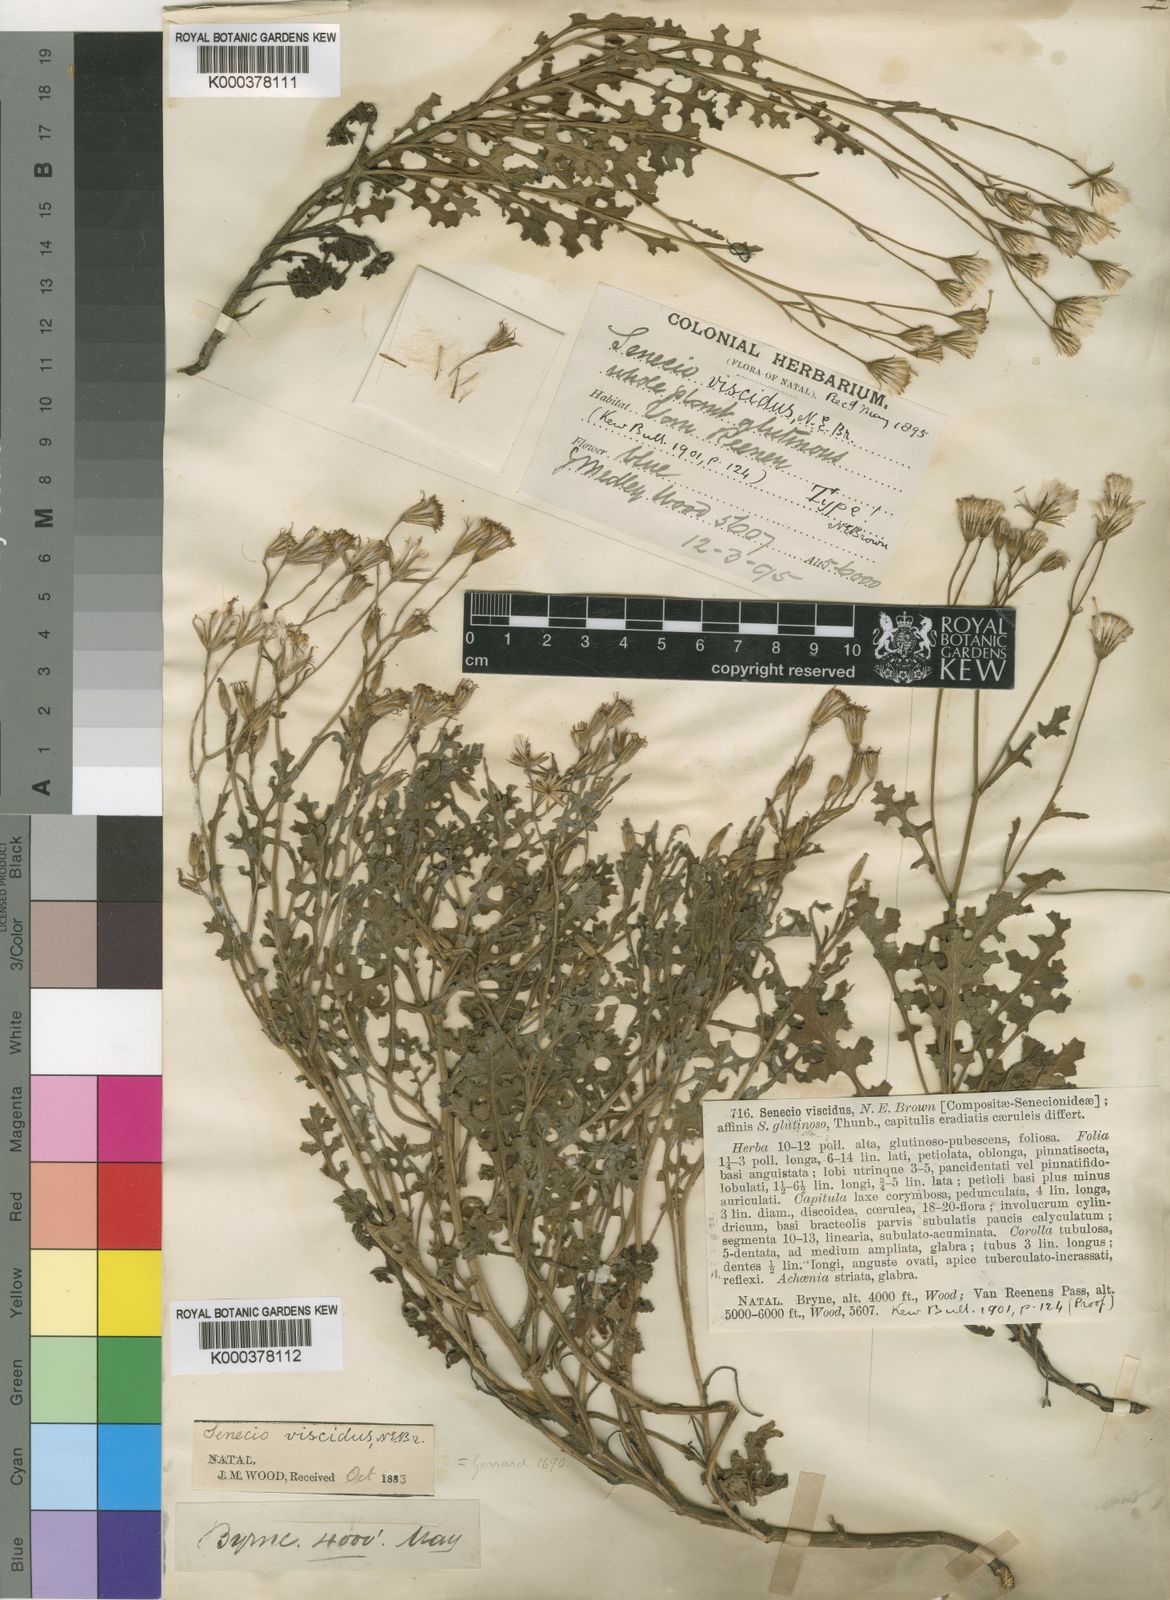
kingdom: Plantae
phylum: Tracheophyta
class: Magnoliopsida
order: Asterales
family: Asteraceae
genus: Senecio
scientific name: Senecio subrubriflorus
